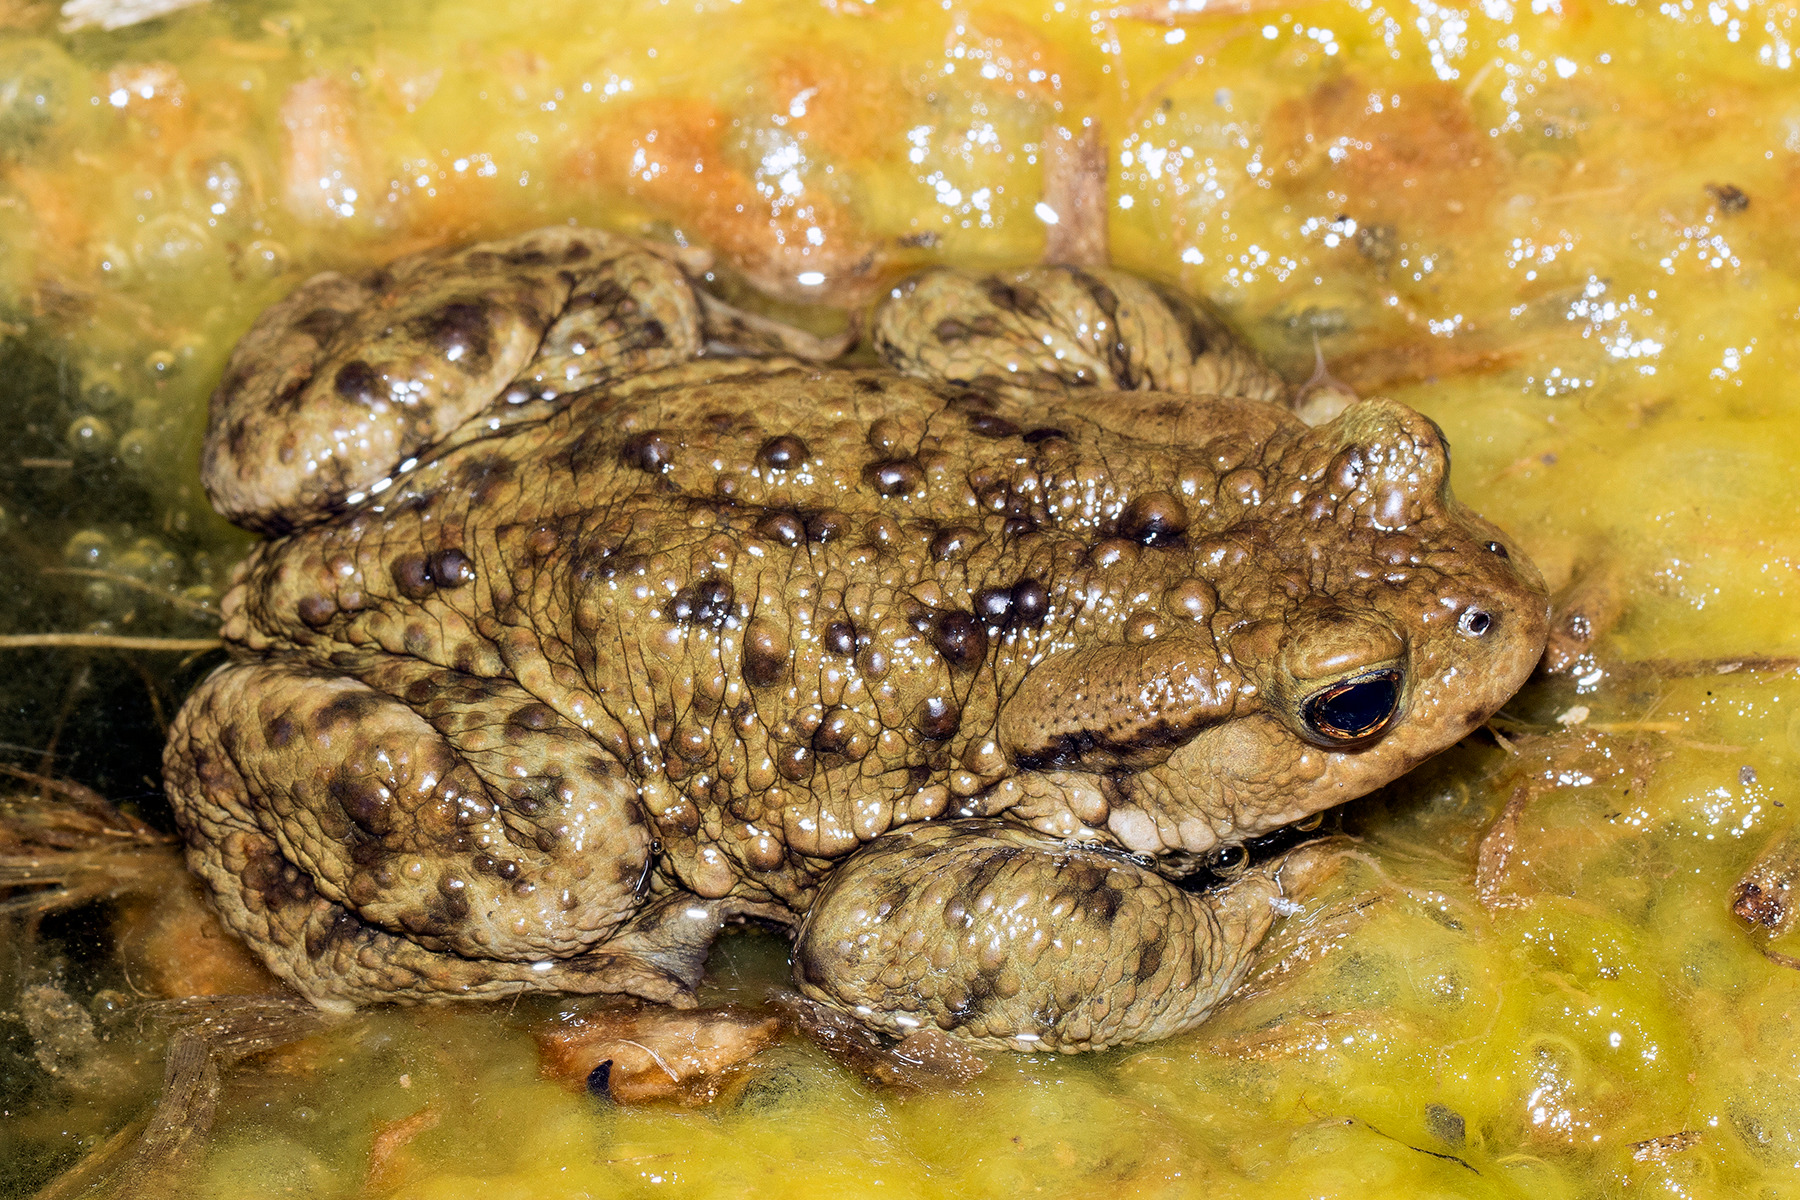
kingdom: Animalia
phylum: Chordata
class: Amphibia
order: Anura
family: Bufonidae
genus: Bufo
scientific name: Bufo bufo
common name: Skrubtudse
